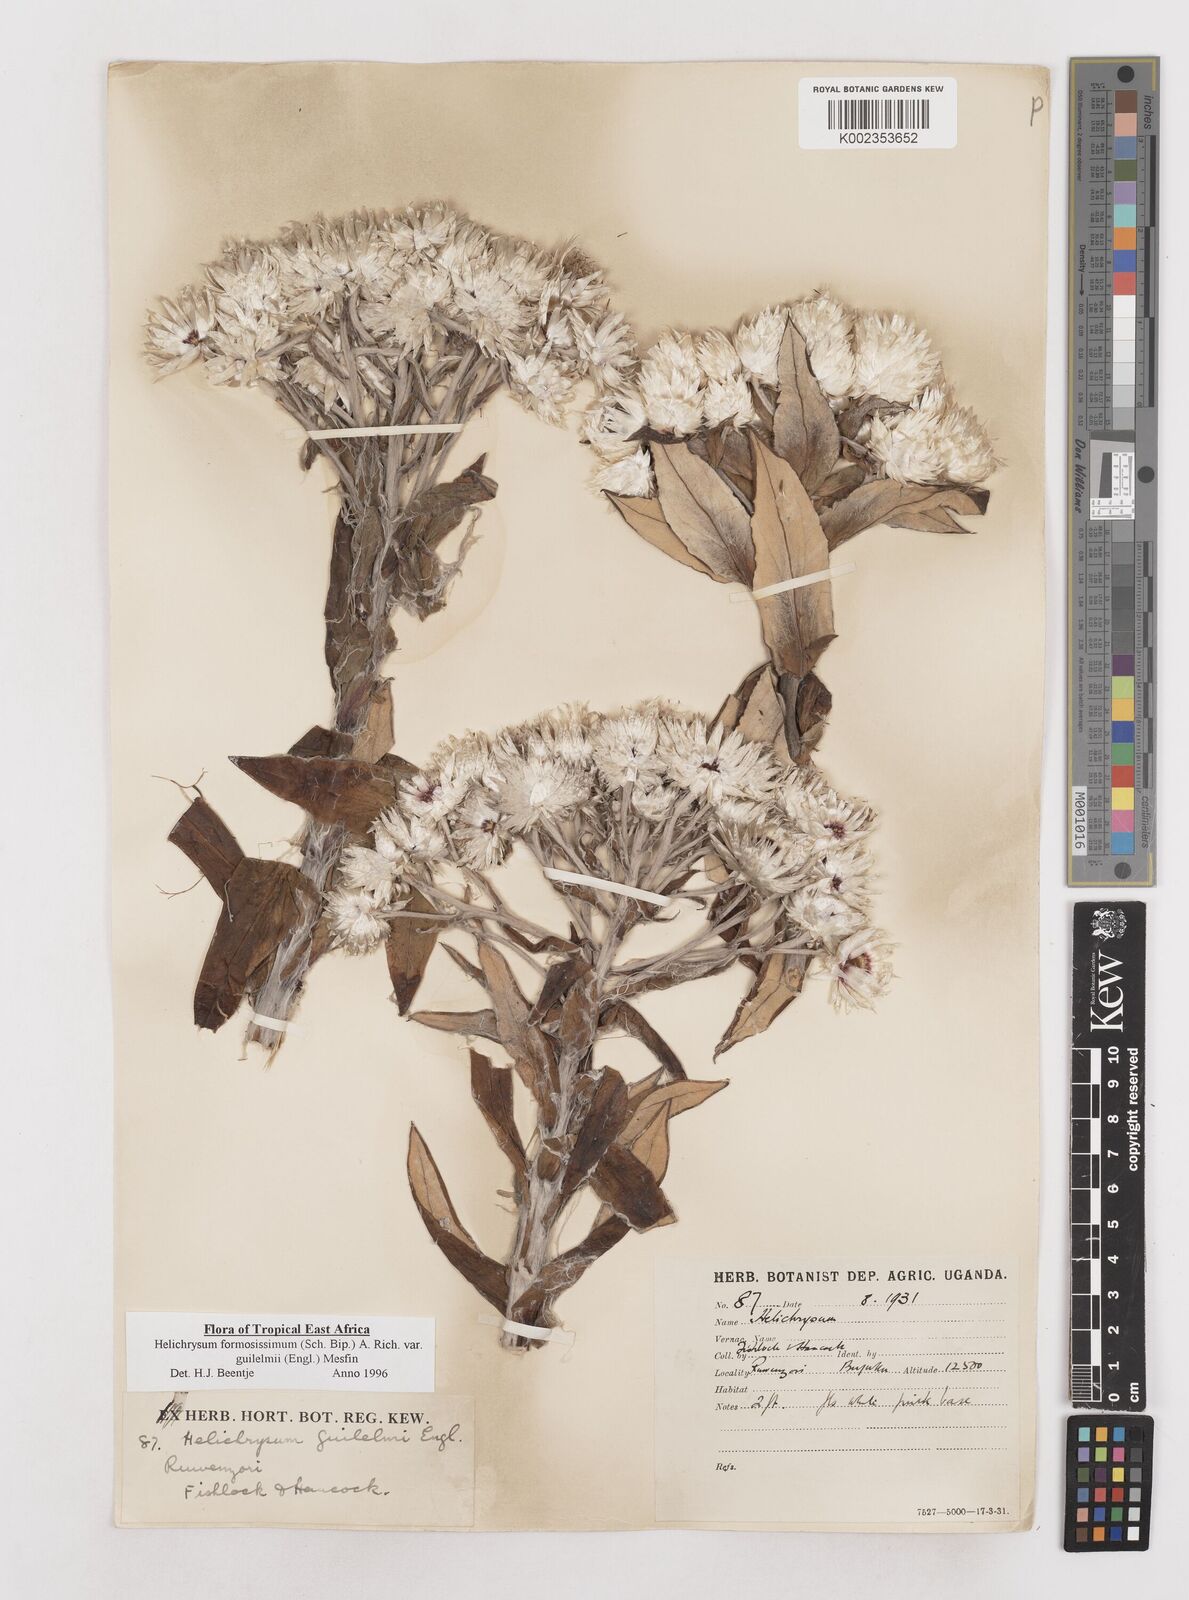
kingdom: Plantae
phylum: Tracheophyta
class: Magnoliopsida
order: Asterales
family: Asteraceae
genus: Helichrysum
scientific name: Helichrysum formosissimum
